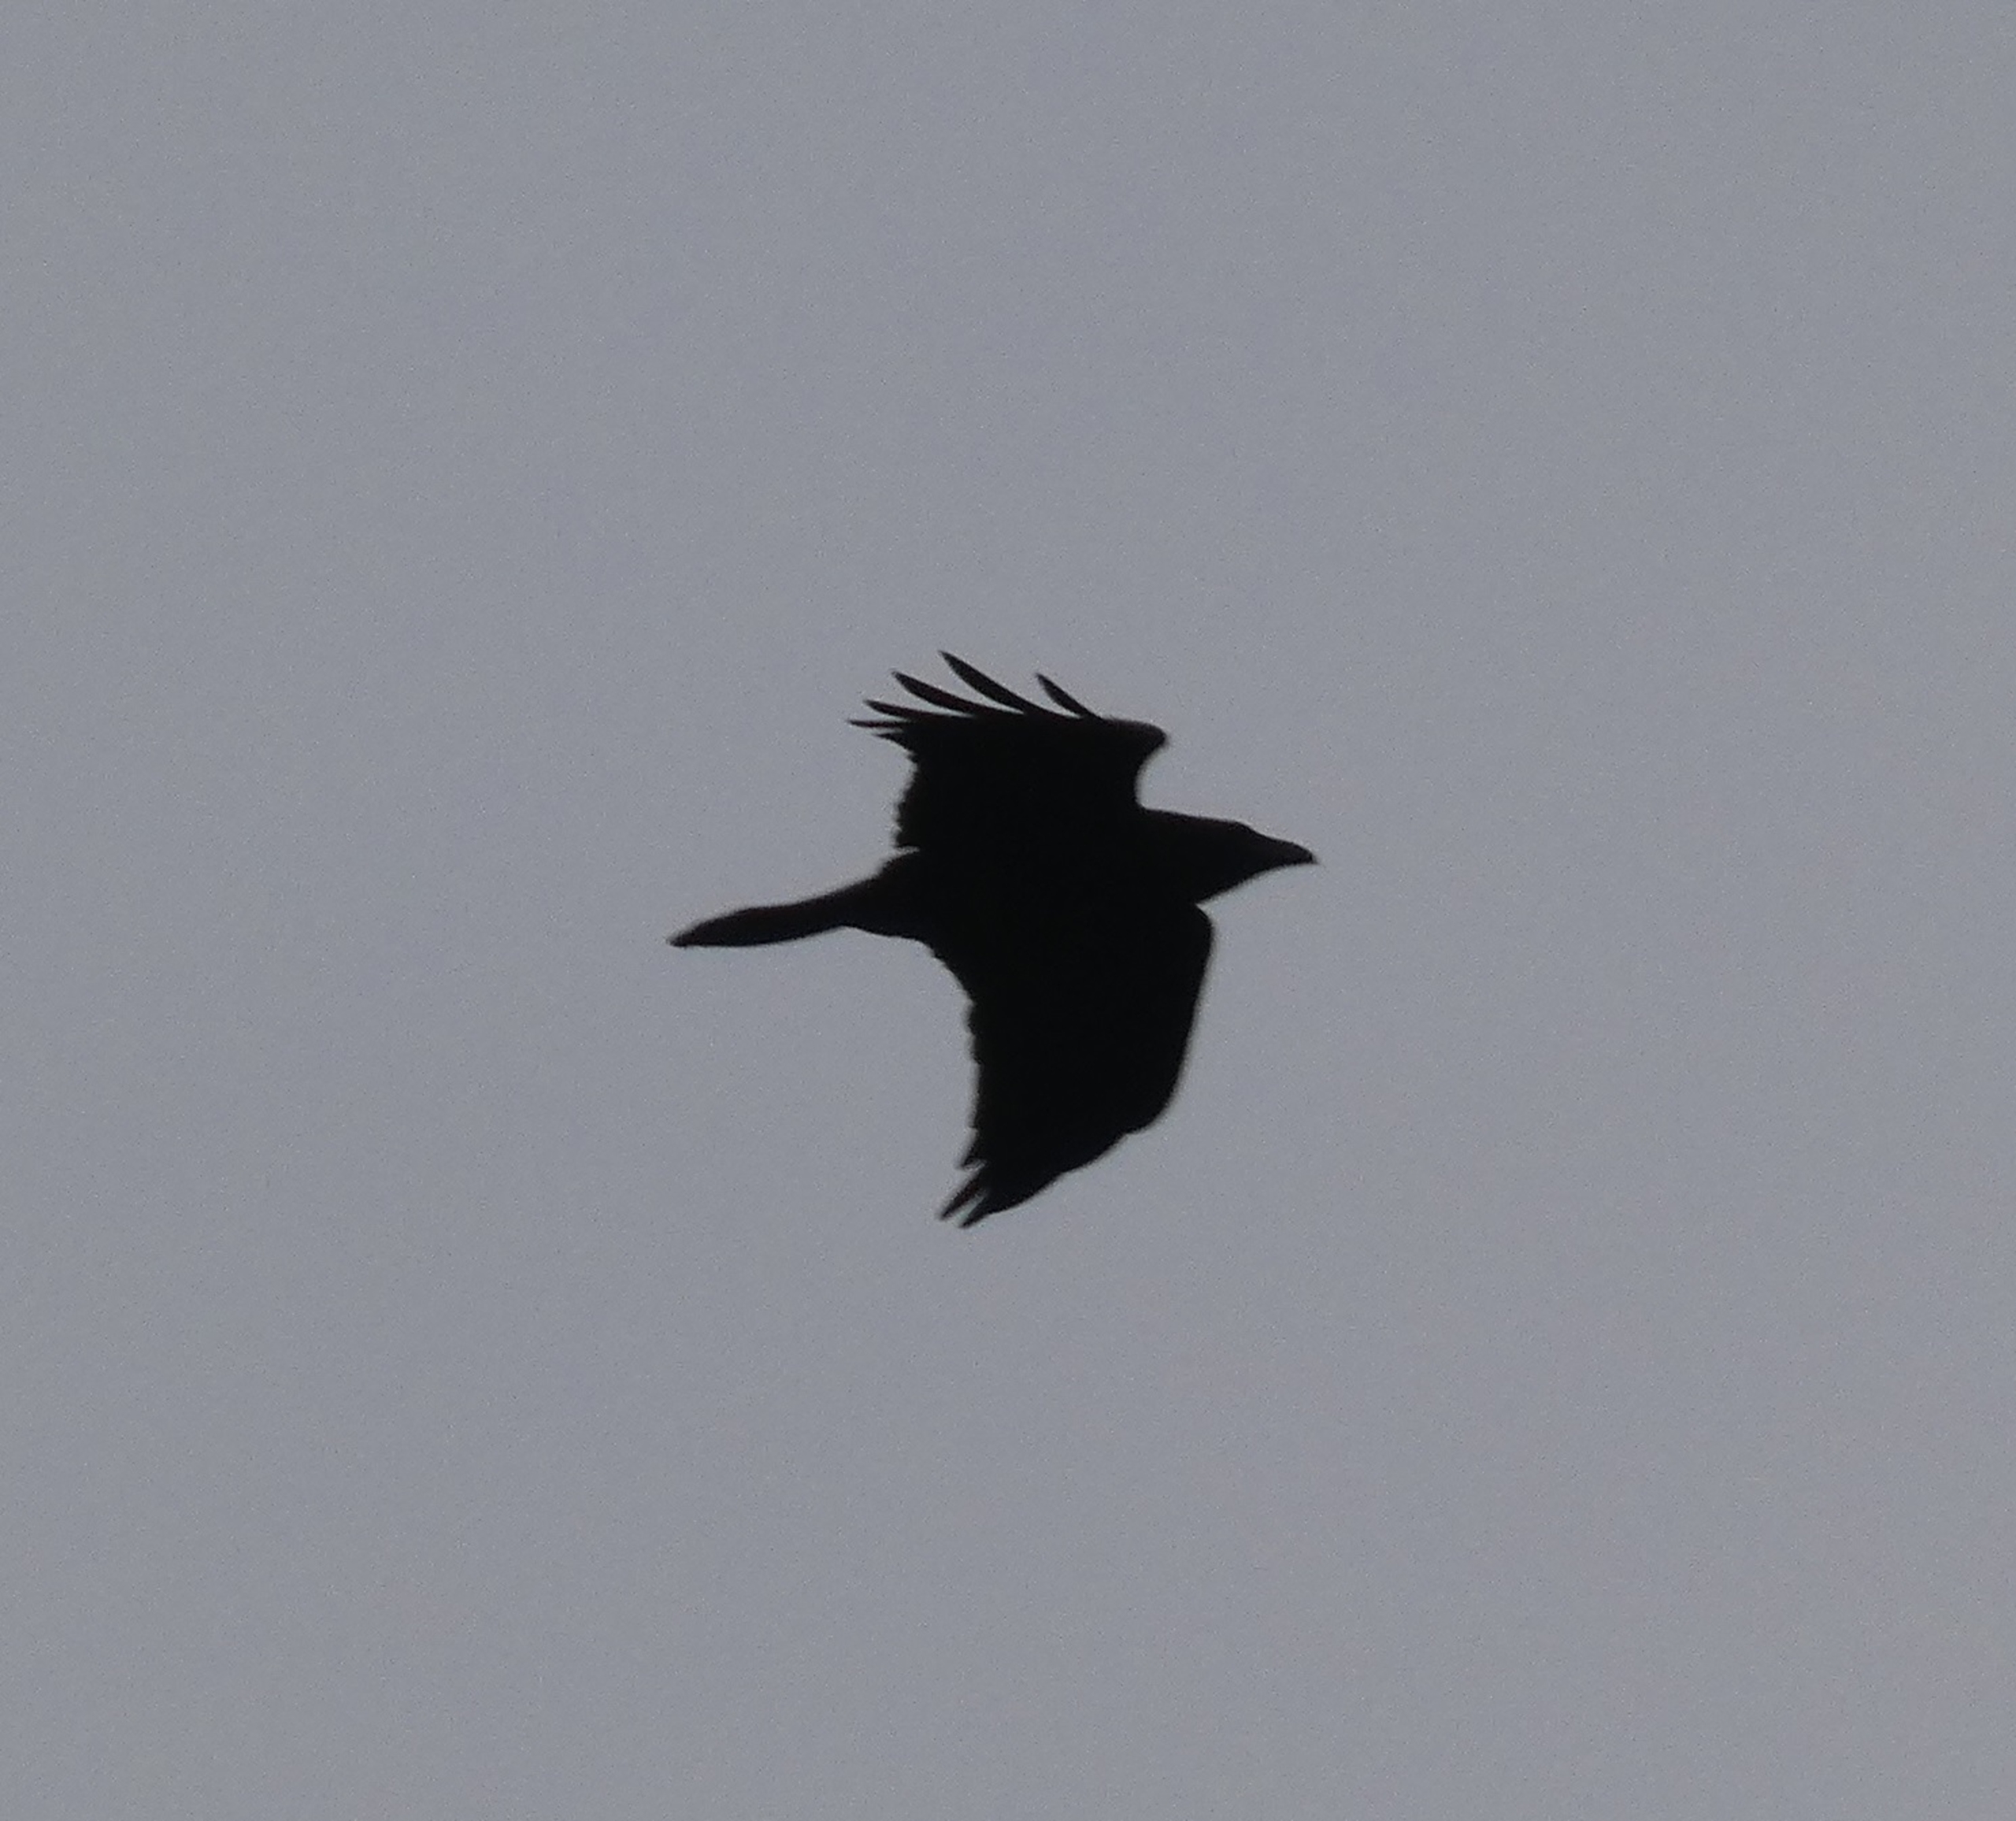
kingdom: Animalia
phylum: Chordata
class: Aves
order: Passeriformes
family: Corvidae
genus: Corvus
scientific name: Corvus corax
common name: Ravn
